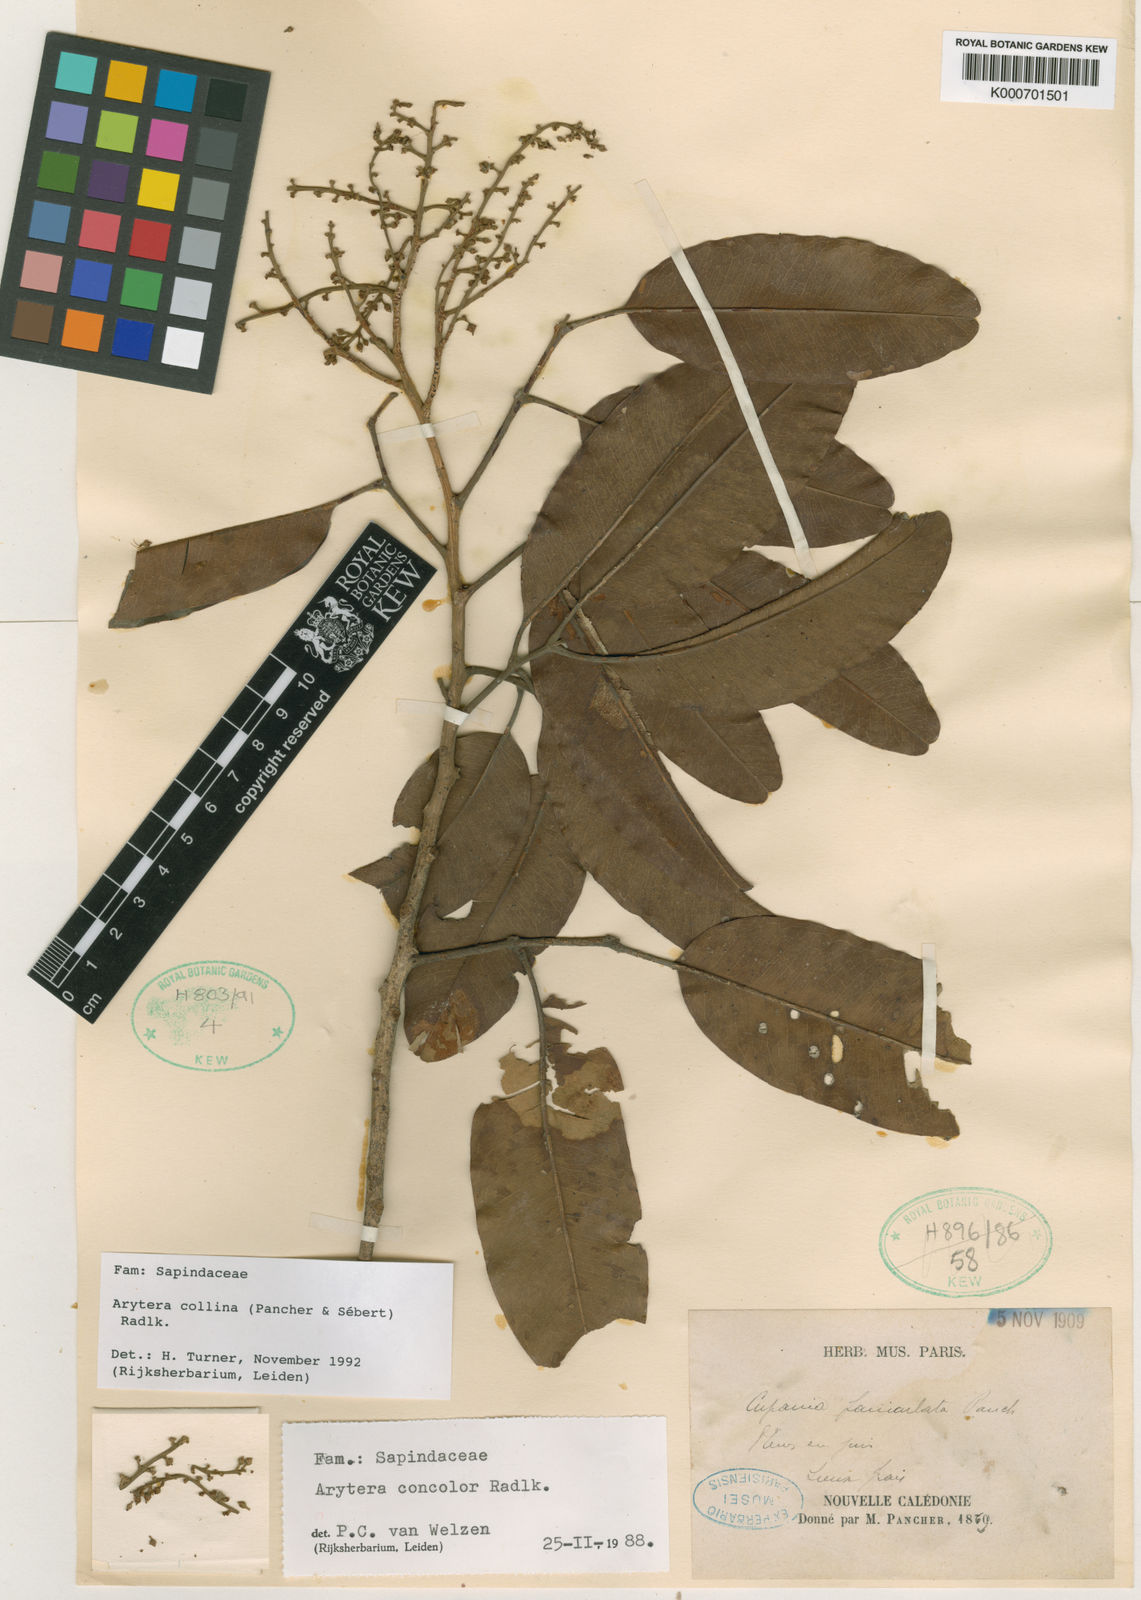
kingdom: Plantae
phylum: Tracheophyta
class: Magnoliopsida
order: Sapindales
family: Sapindaceae
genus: Arytera
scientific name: Arytera
